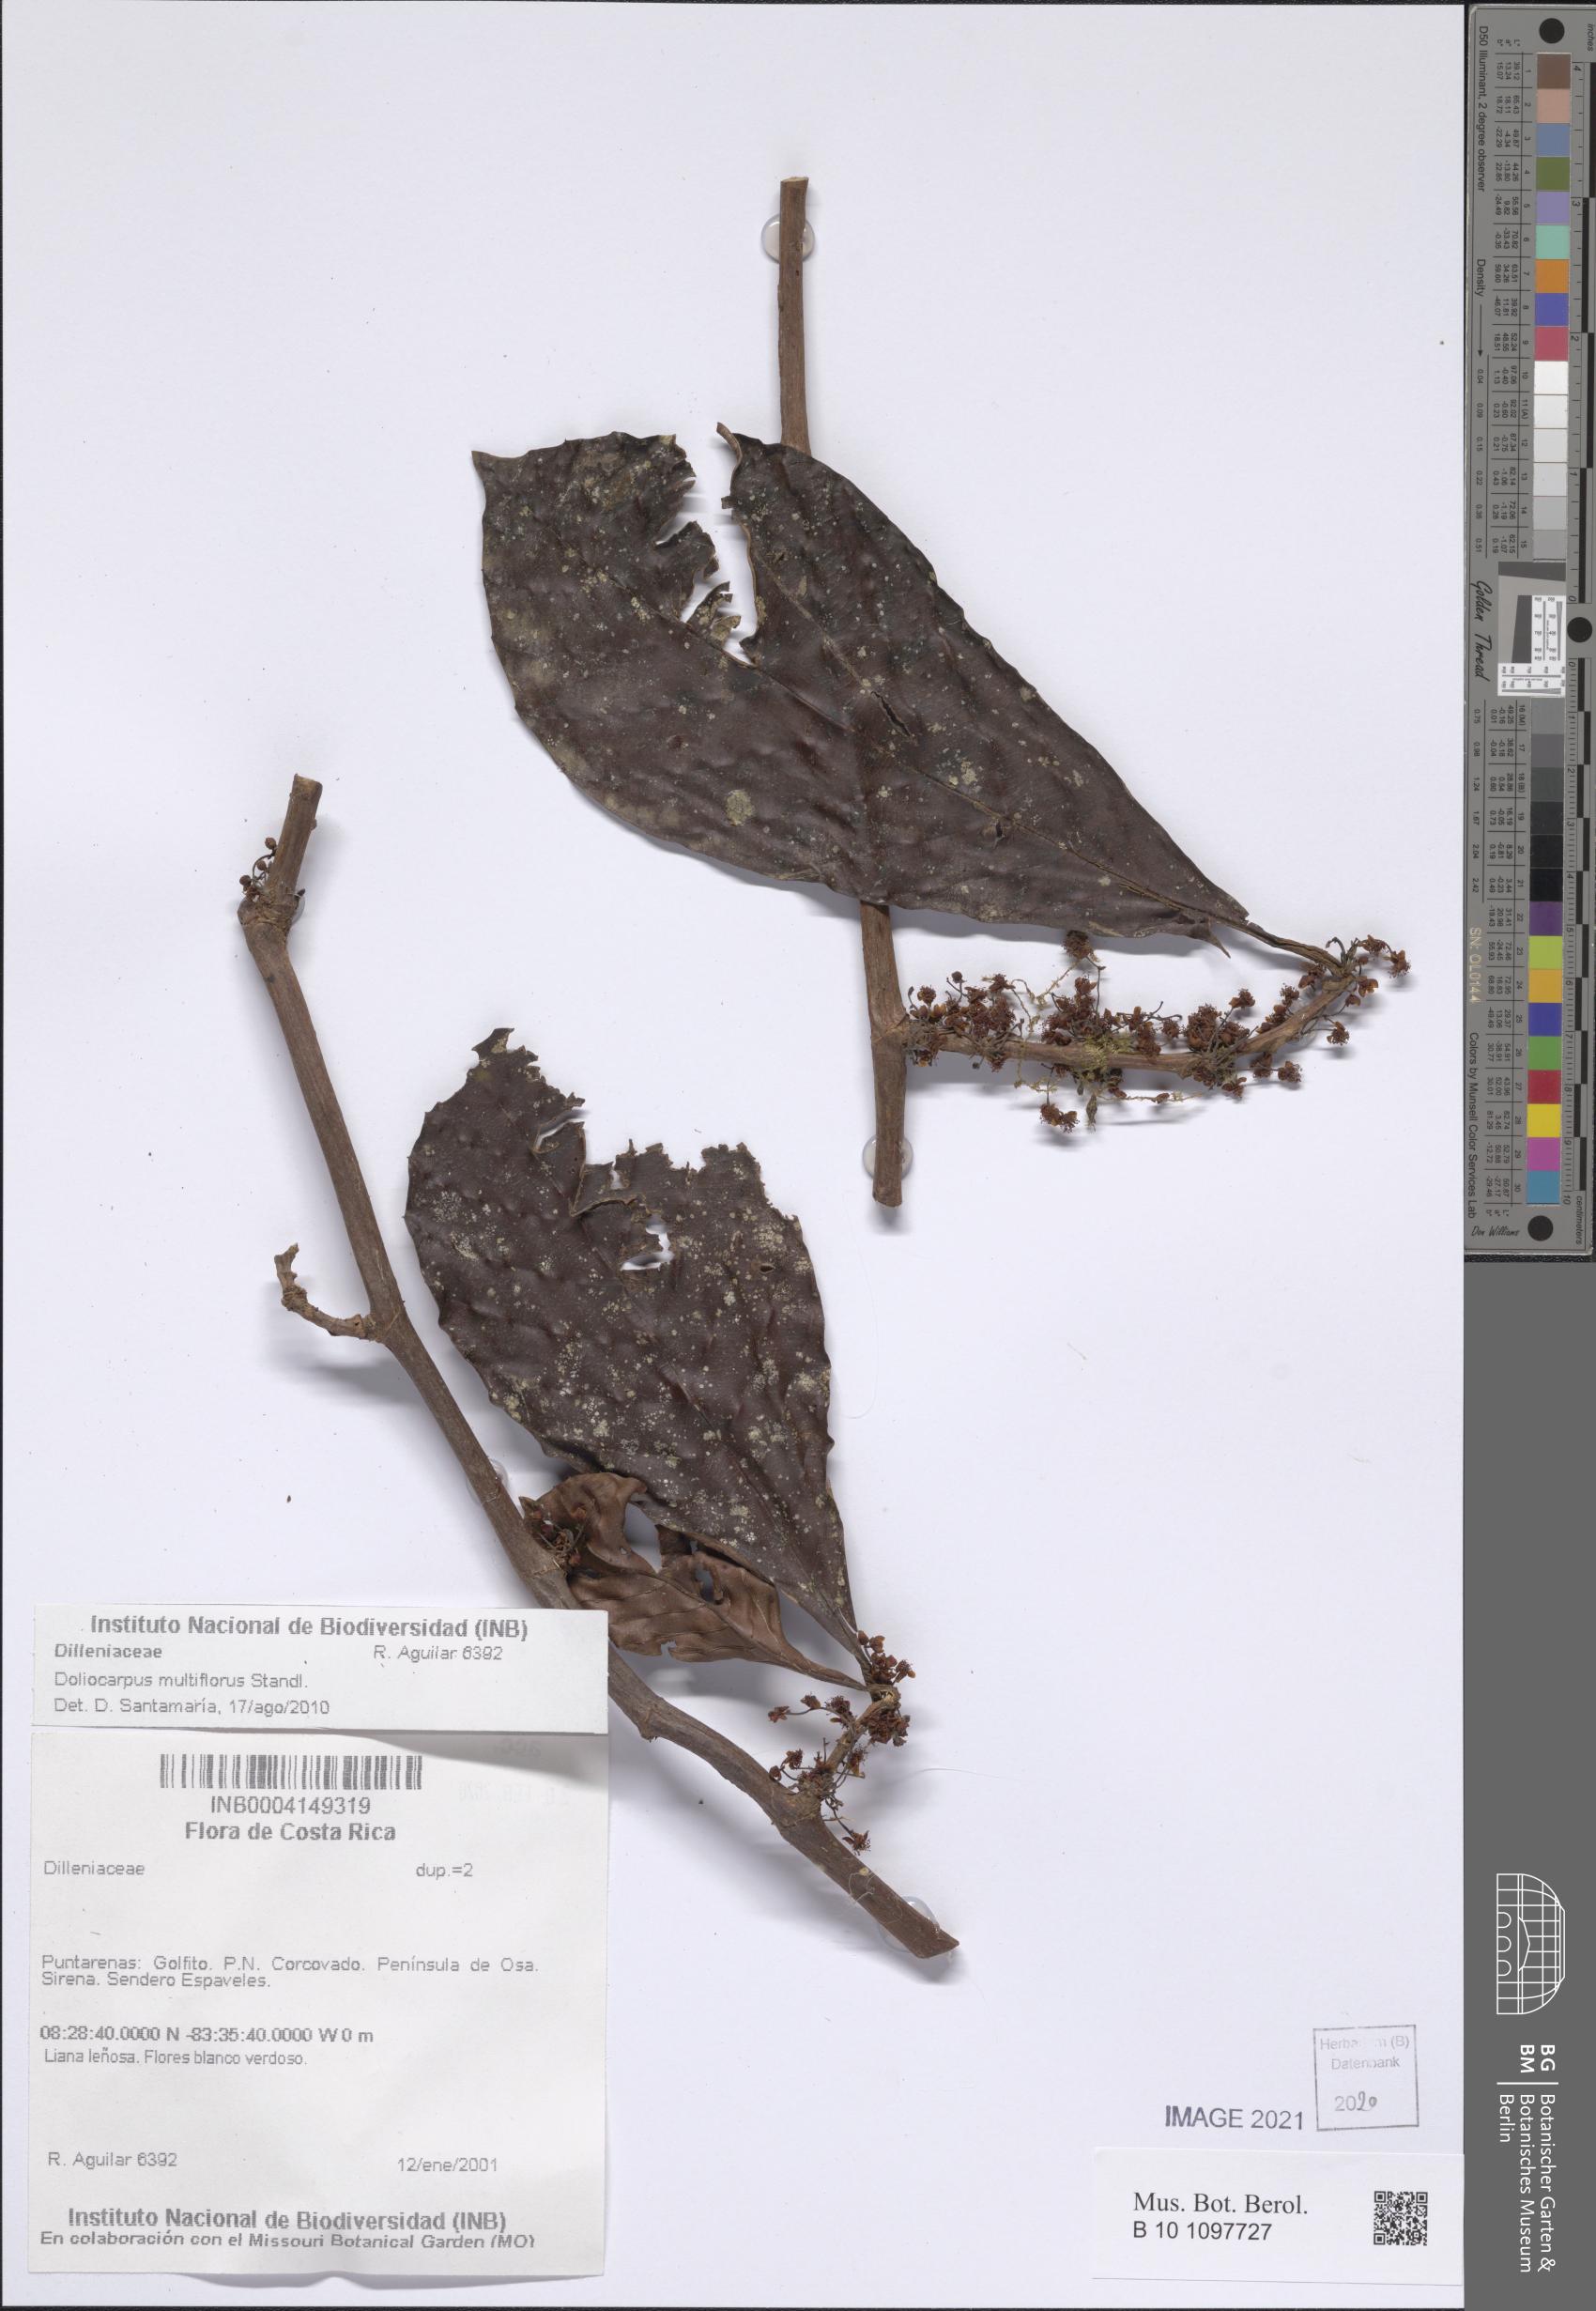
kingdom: Plantae
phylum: Tracheophyta
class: Magnoliopsida
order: Dilleniales
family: Dilleniaceae
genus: Doliocarpus
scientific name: Doliocarpus multiflorus
